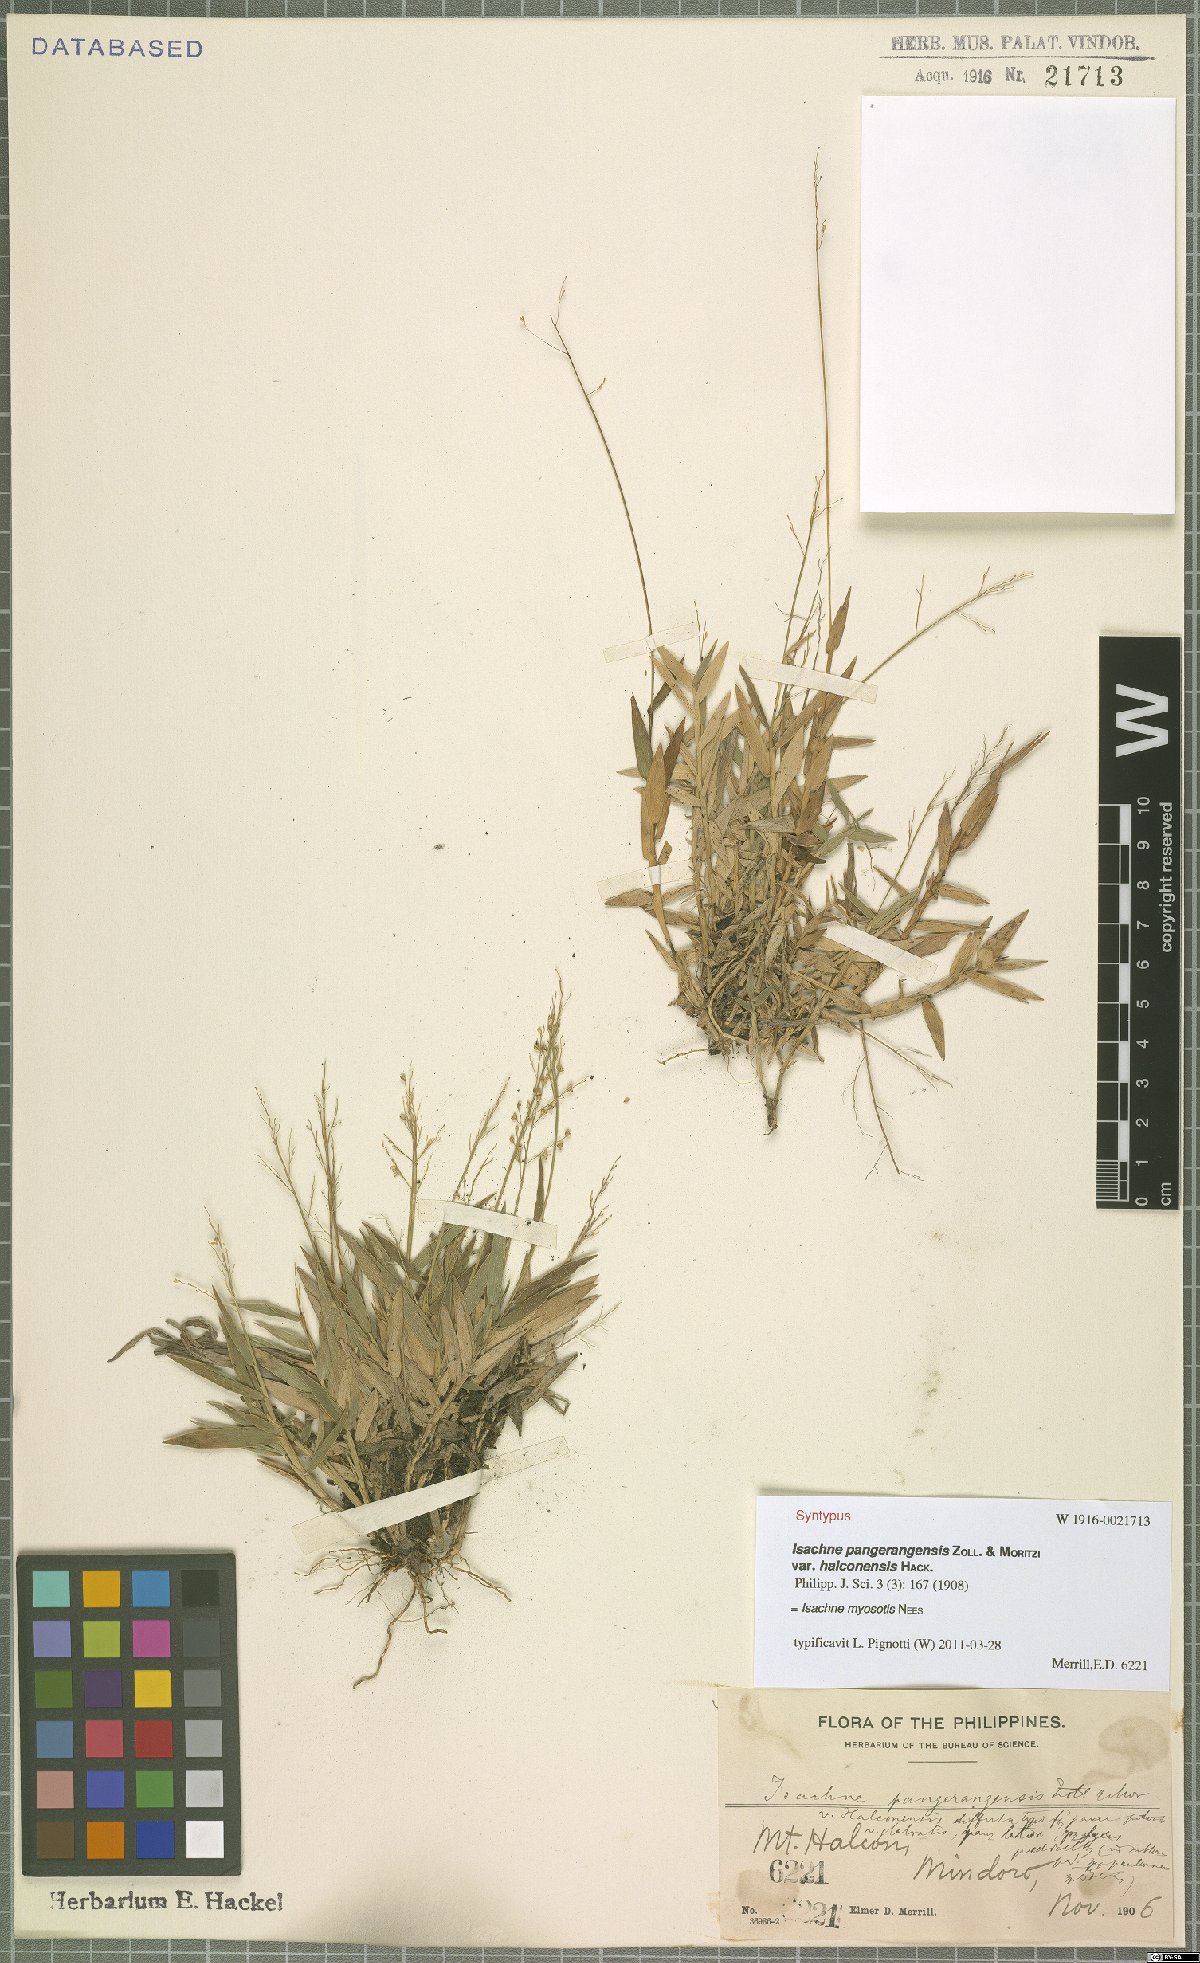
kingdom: Plantae
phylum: Tracheophyta
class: Liliopsida
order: Poales
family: Poaceae
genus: Isachne
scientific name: Isachne myosotis
